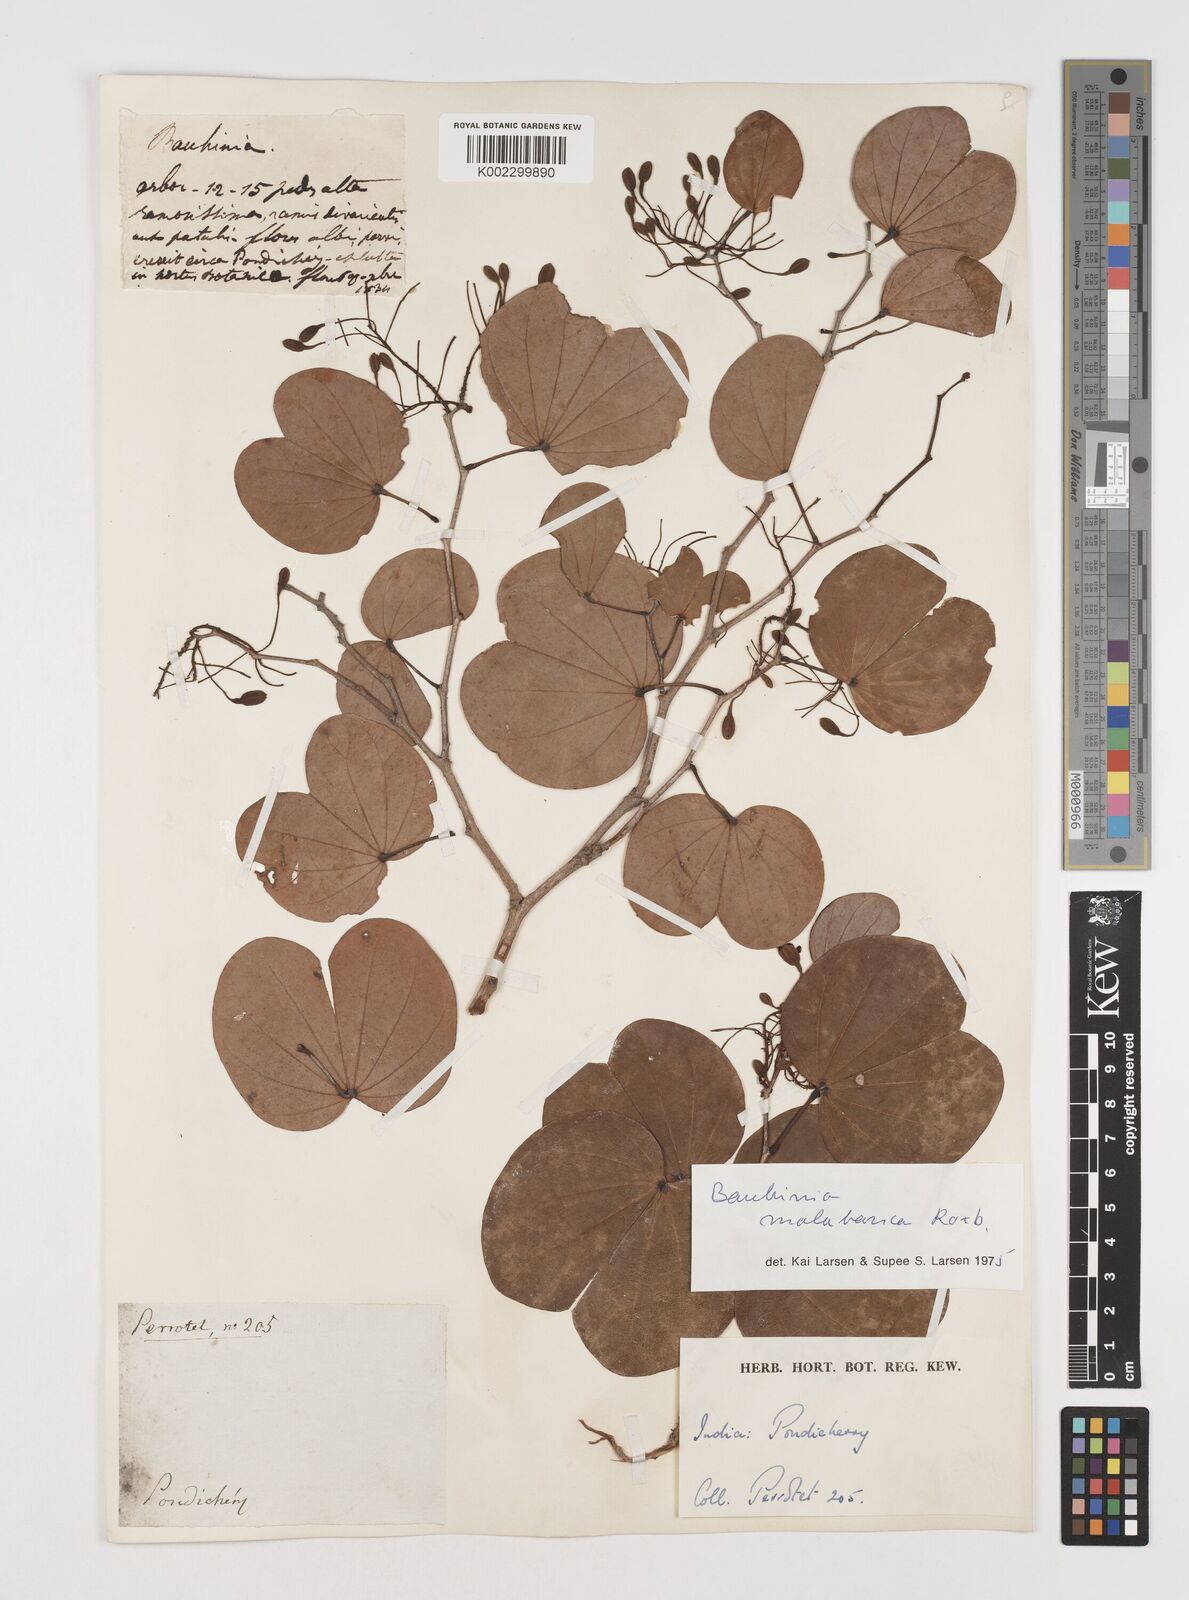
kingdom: Plantae
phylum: Tracheophyta
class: Magnoliopsida
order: Fabales
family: Fabaceae
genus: Piliostigma
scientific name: Piliostigma malabaricum
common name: Malabar bauhinia
